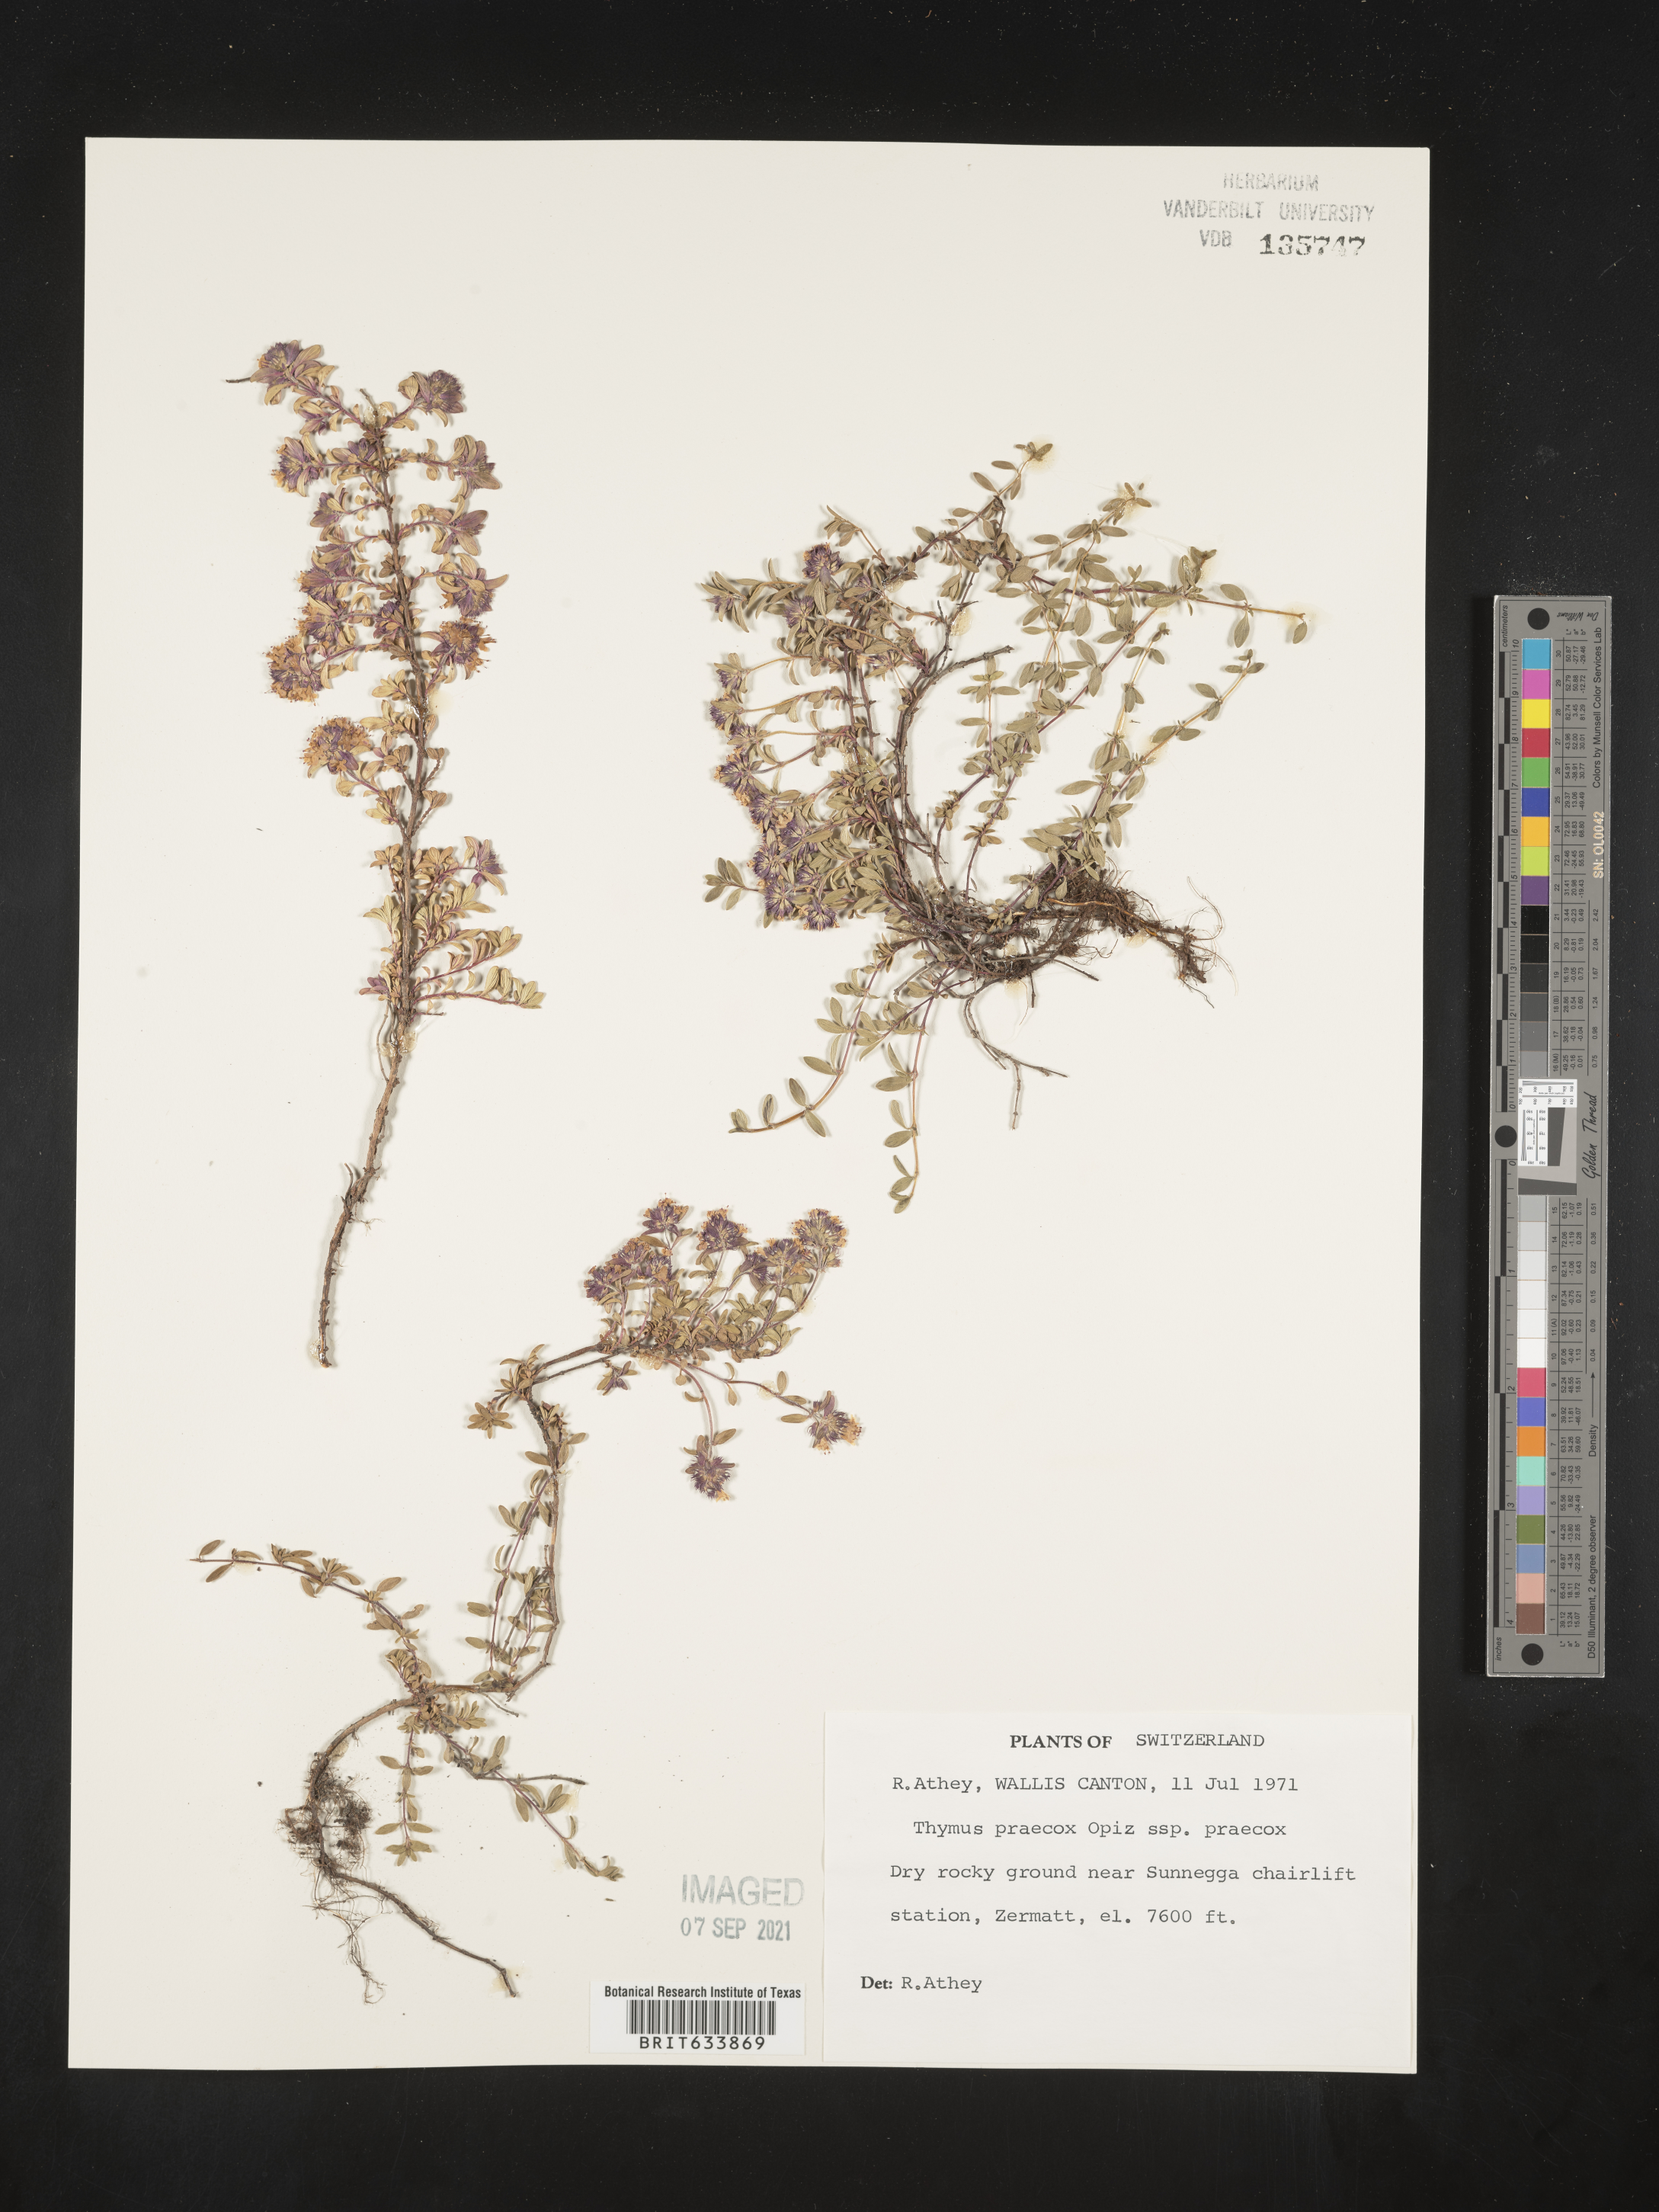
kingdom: Plantae
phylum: Tracheophyta
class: Magnoliopsida
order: Lamiales
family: Lamiaceae
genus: Thymus
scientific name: Thymus
